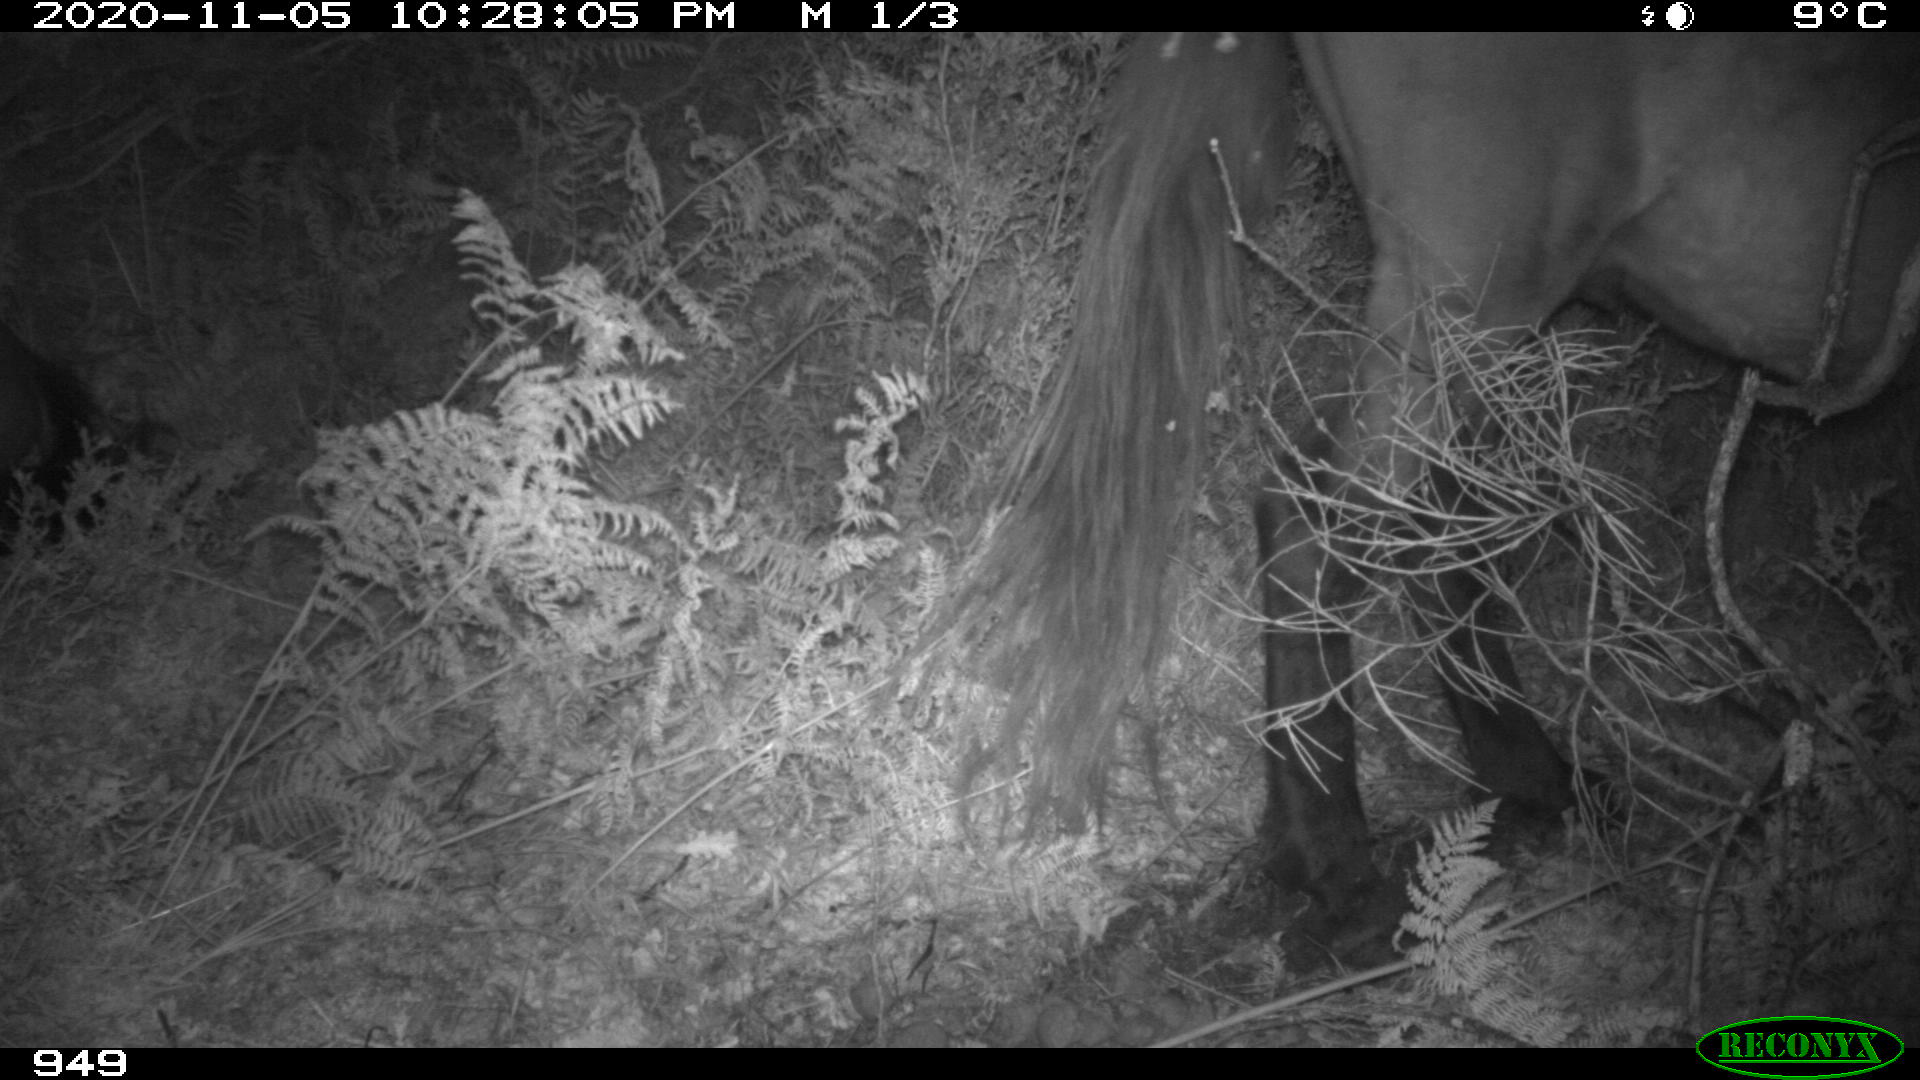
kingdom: Animalia
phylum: Chordata
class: Mammalia
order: Perissodactyla
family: Equidae
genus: Equus
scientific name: Equus caballus
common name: Horse
